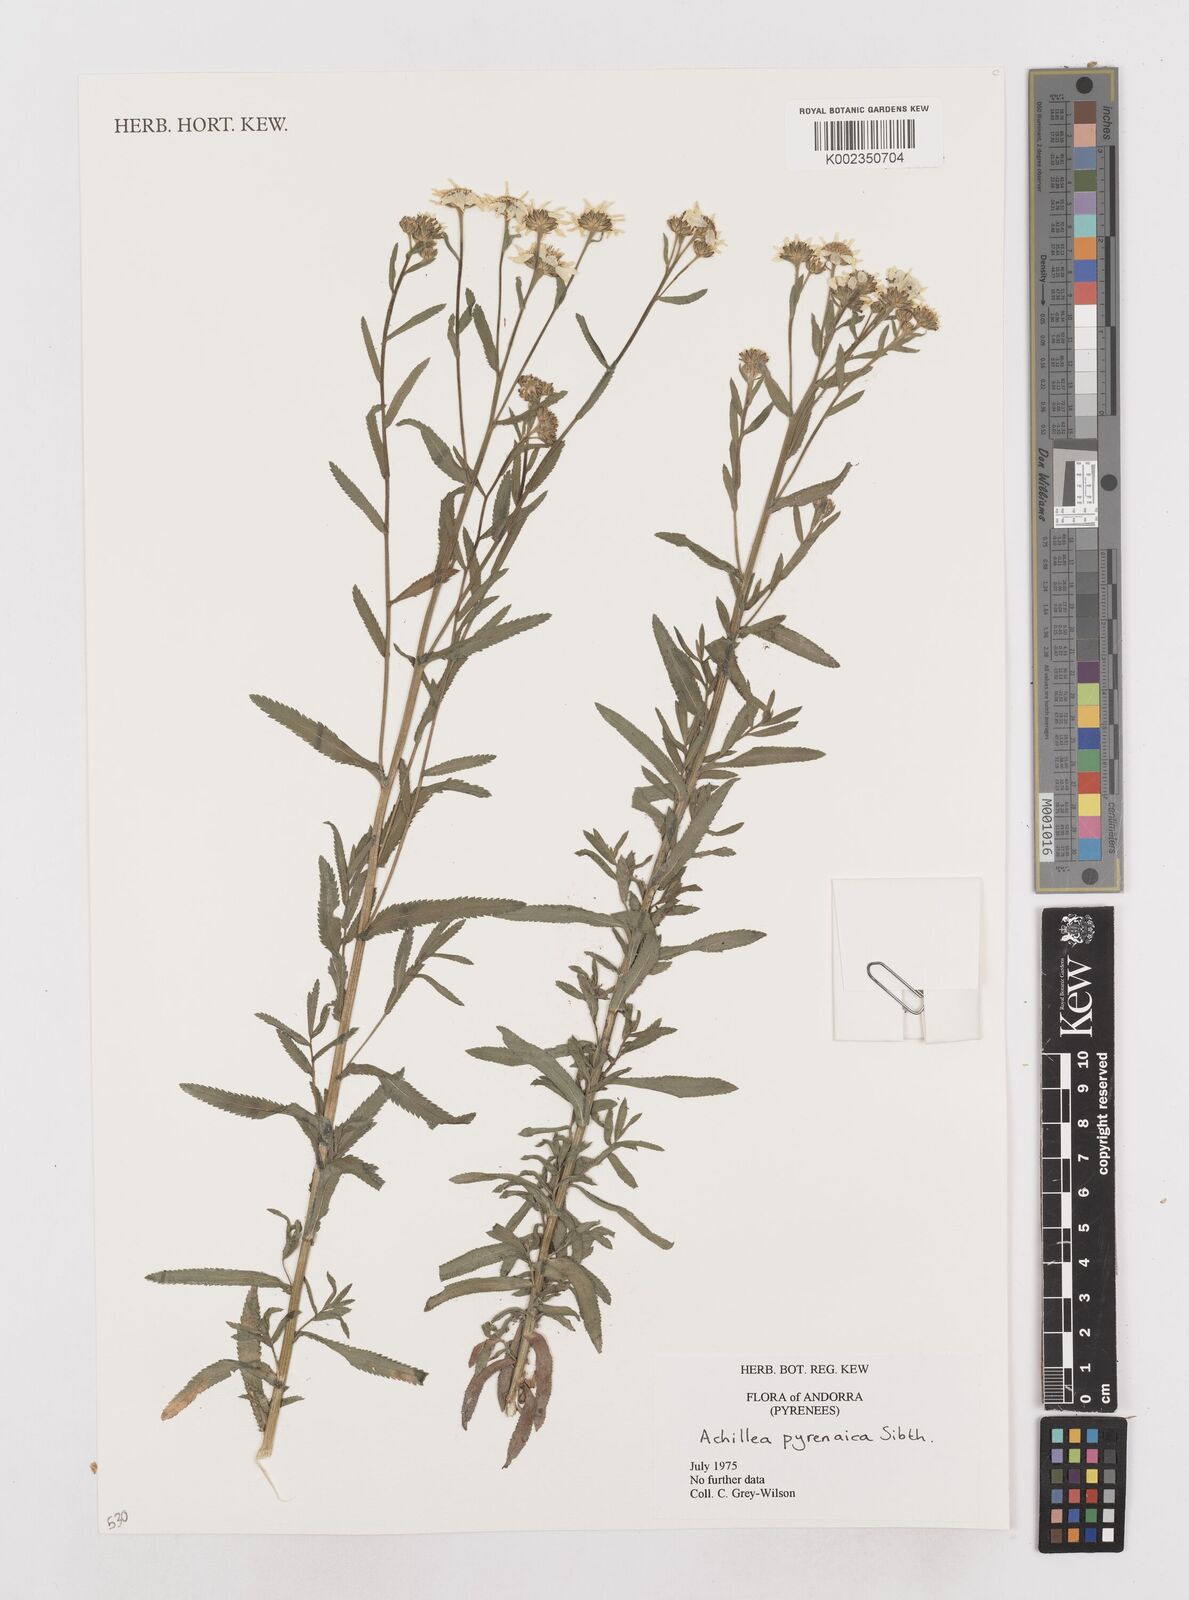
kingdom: Plantae
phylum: Tracheophyta
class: Magnoliopsida
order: Asterales
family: Asteraceae
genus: Achillea
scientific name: Achillea pyrenaica
